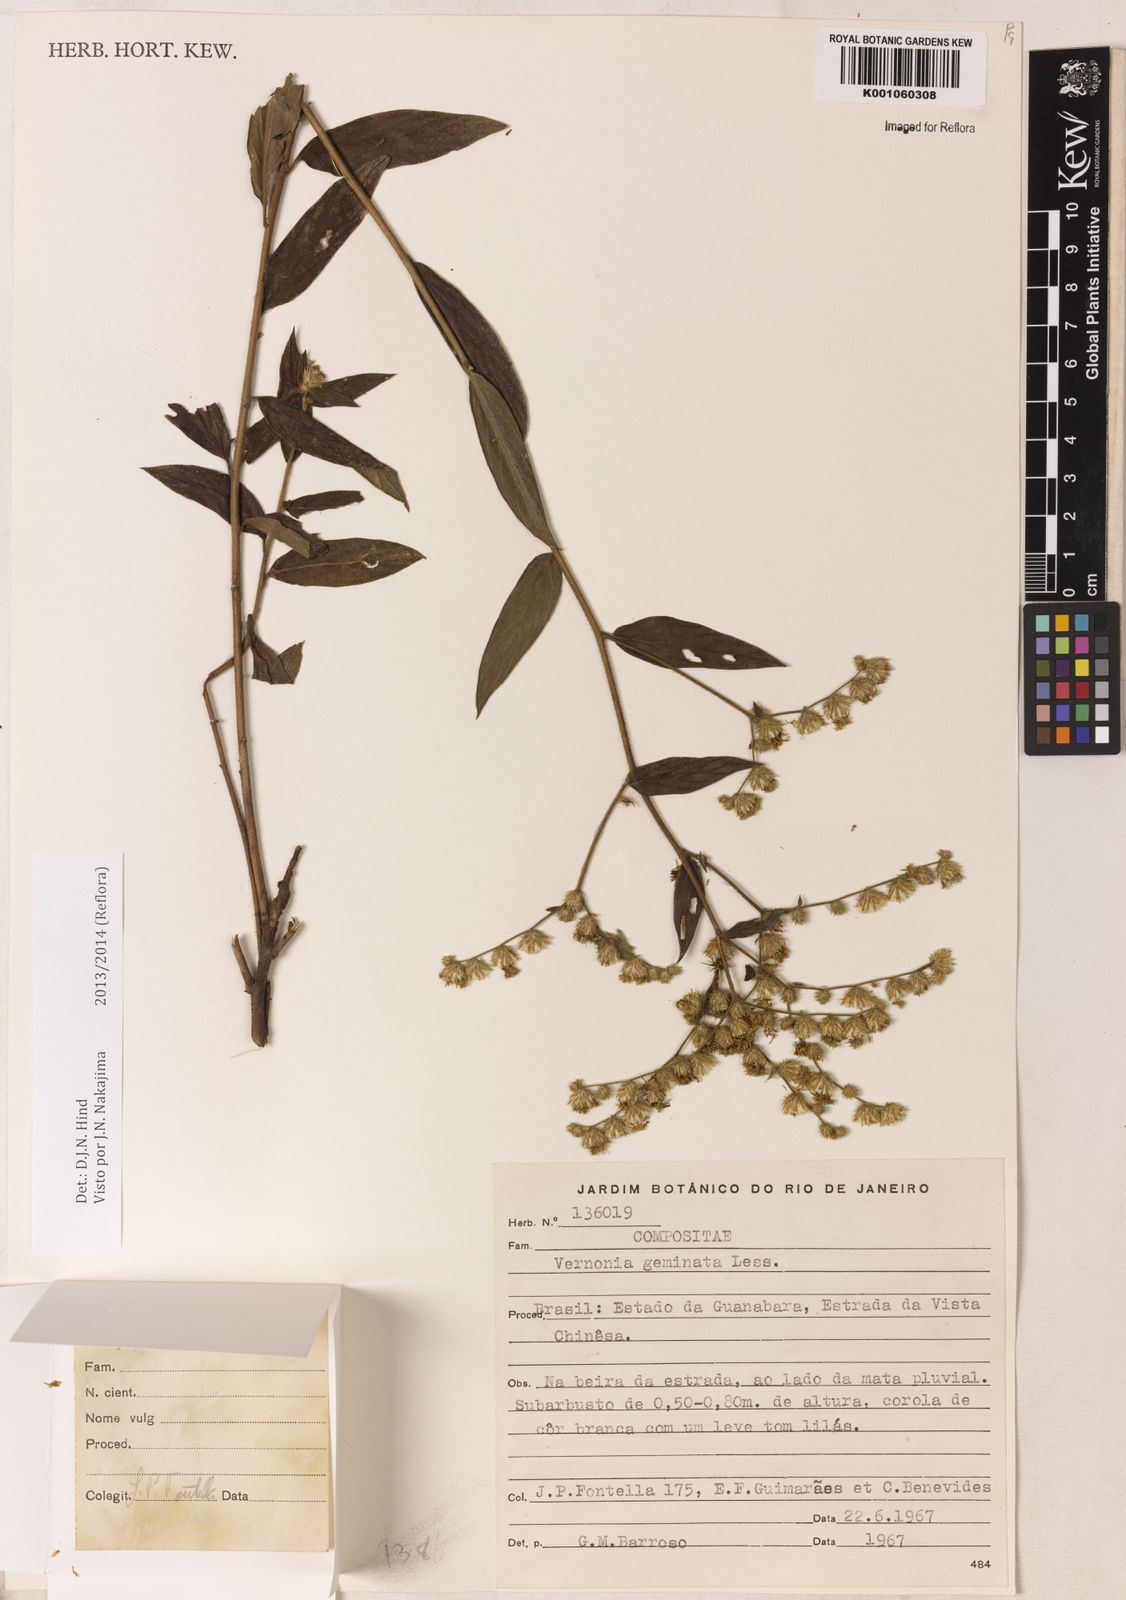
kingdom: Plantae
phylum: Tracheophyta
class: Magnoliopsida
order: Asterales
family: Asteraceae
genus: Lepidaploa
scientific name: Lepidaploa canescens
